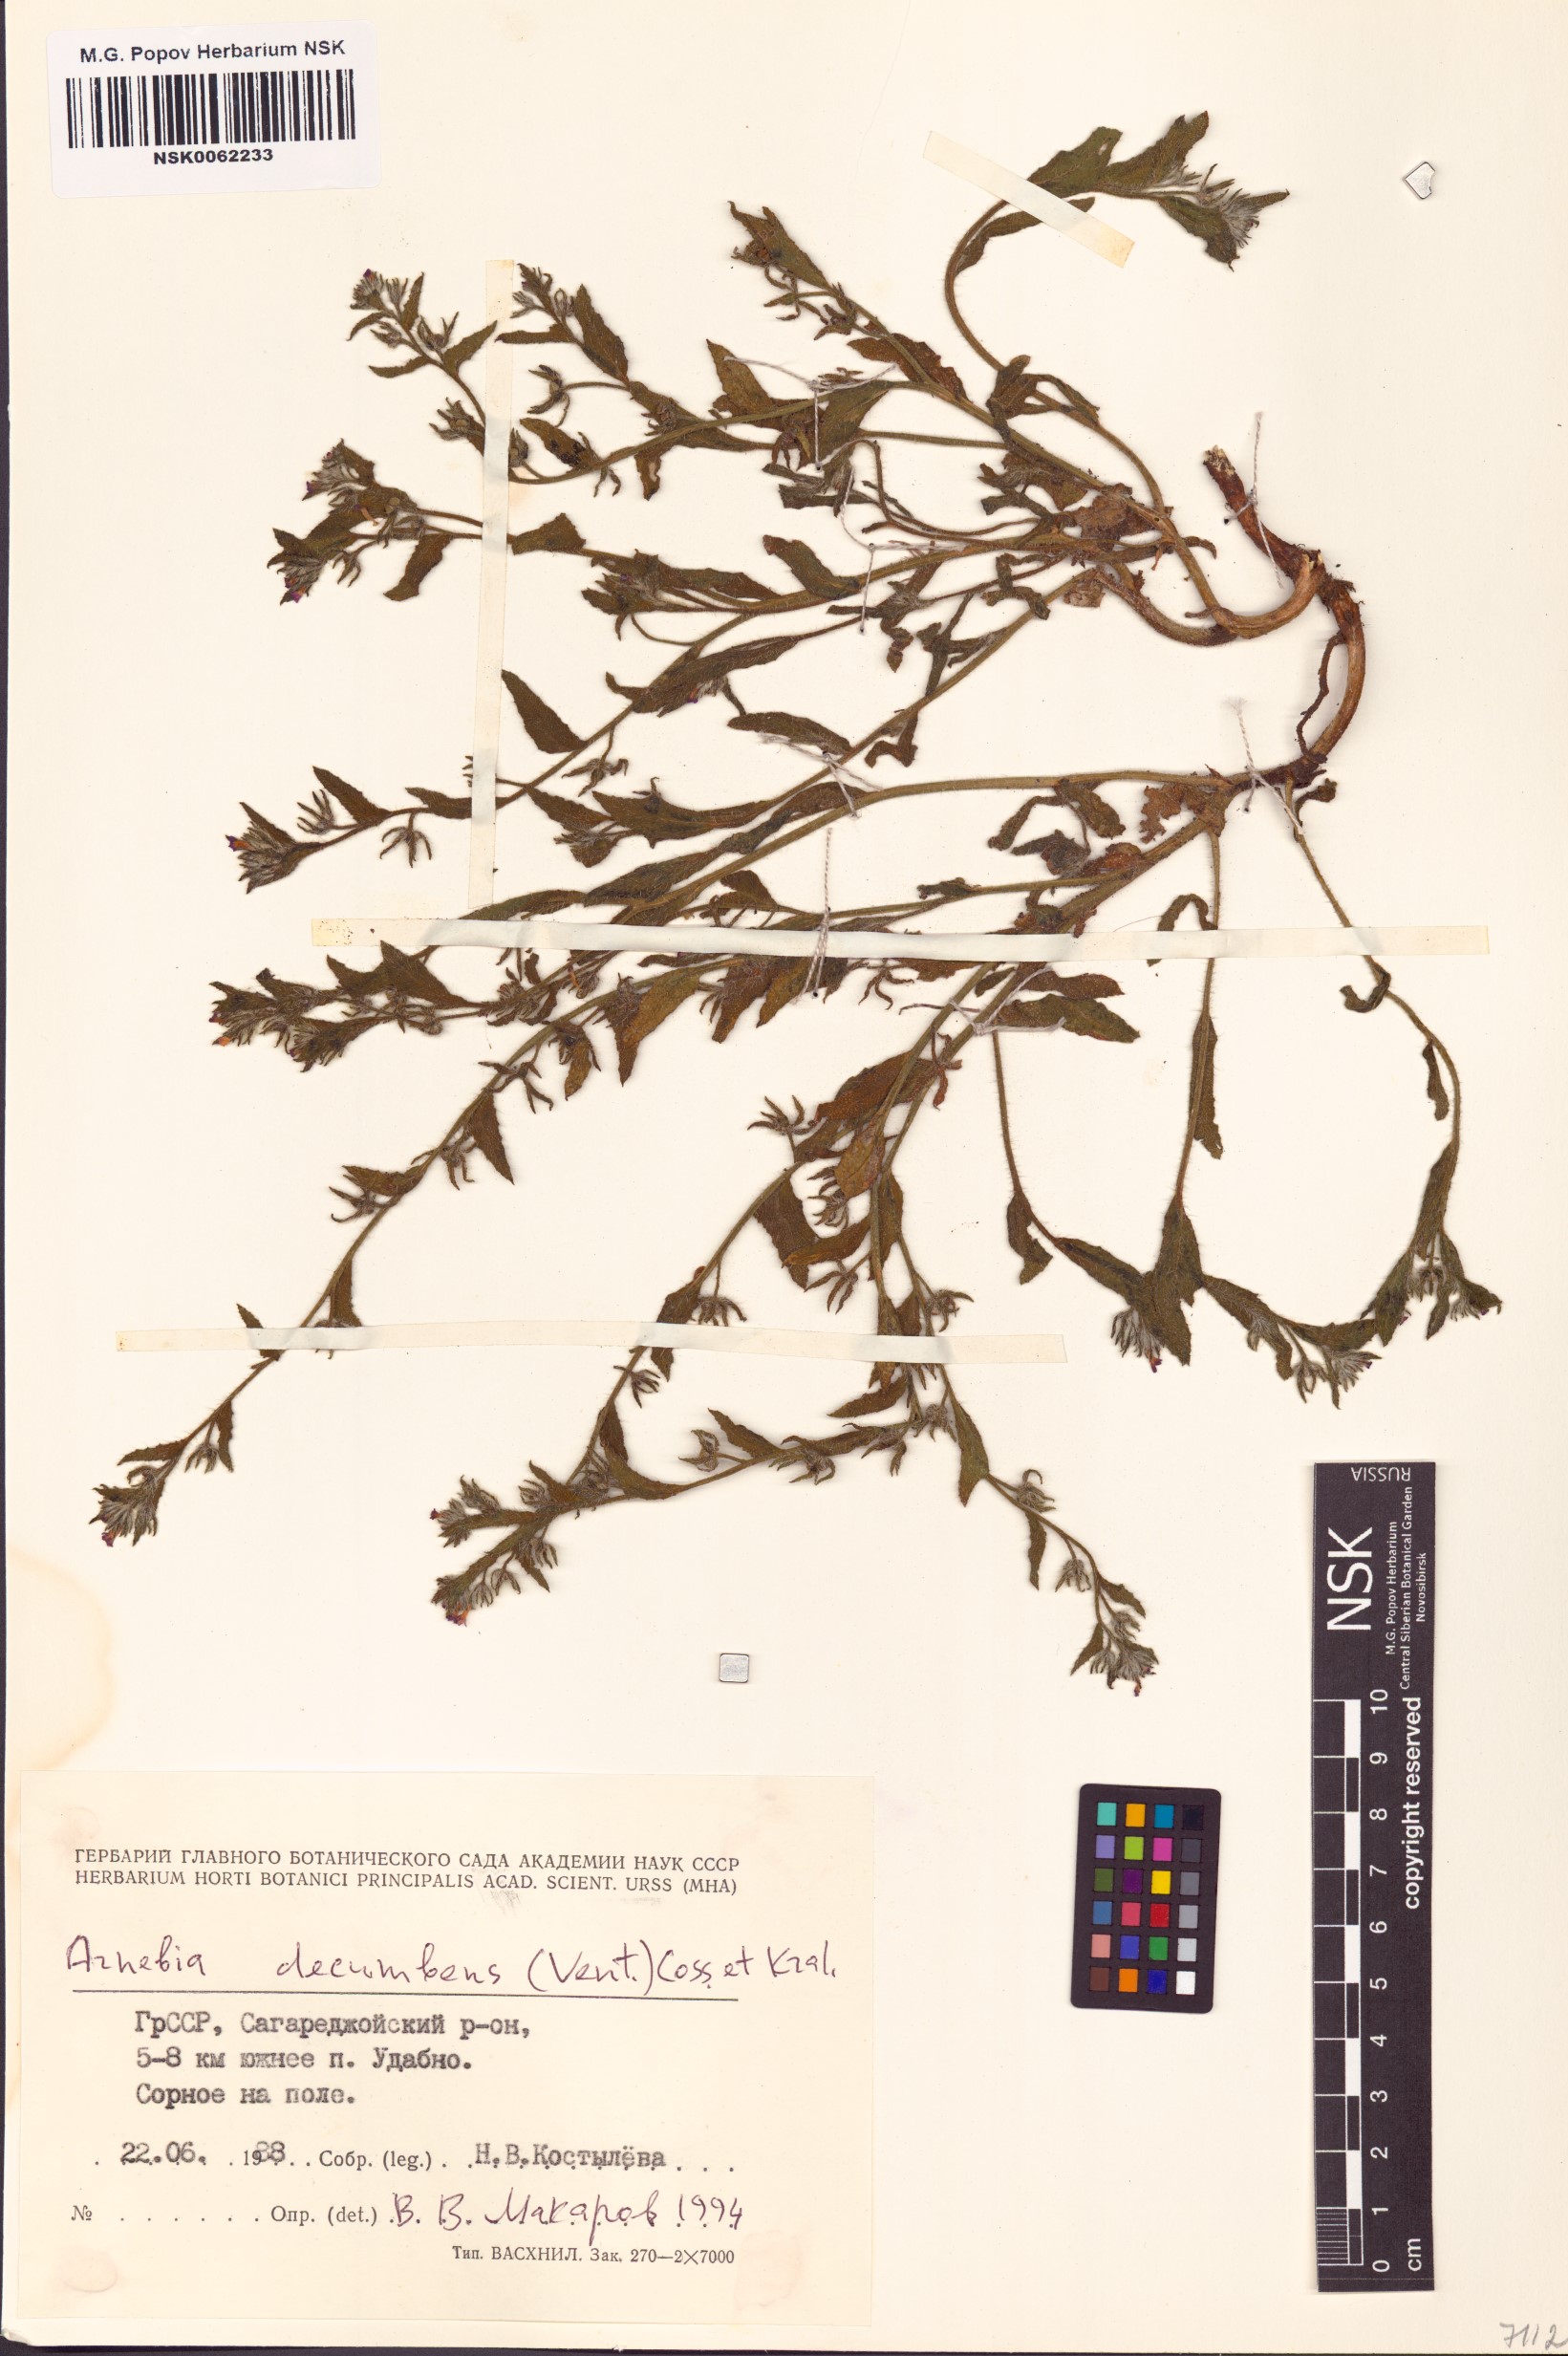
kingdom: Plantae
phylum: Tracheophyta
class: Magnoliopsida
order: Boraginales
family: Boraginaceae
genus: Arnebia
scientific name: Arnebia decumbens
